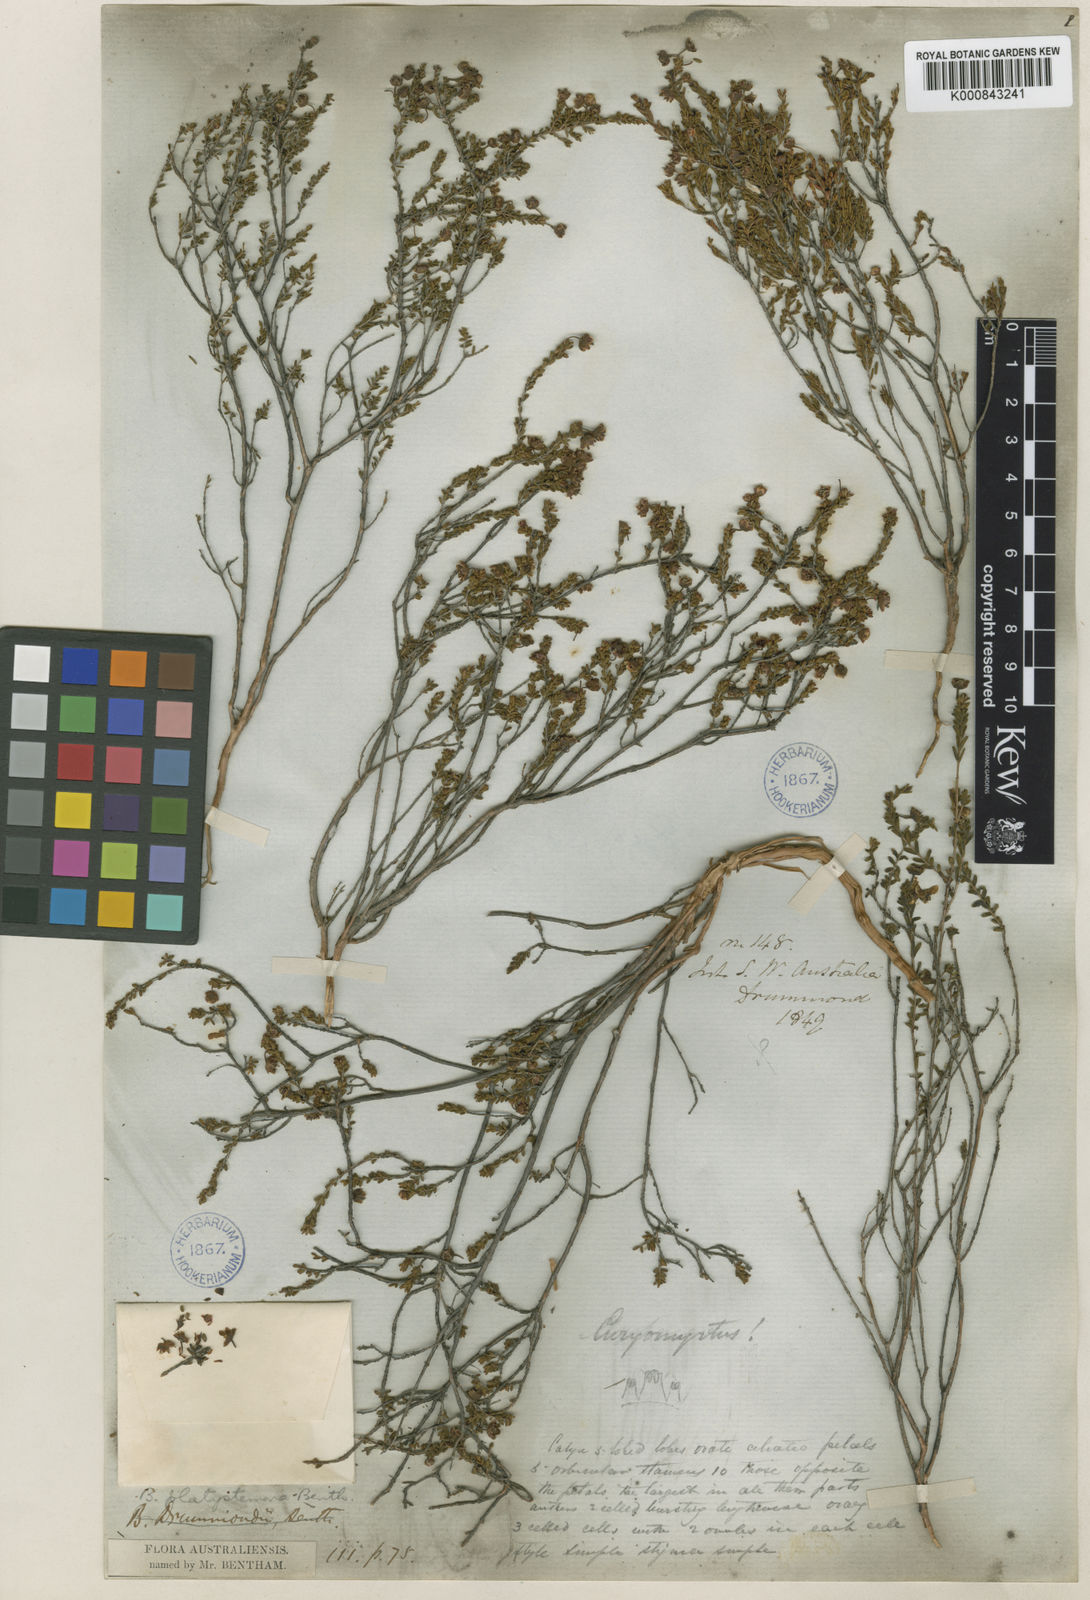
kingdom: Plantae
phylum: Tracheophyta
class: Magnoliopsida
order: Myrtales
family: Myrtaceae
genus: Rinzia
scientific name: Rinzia crassifolia
